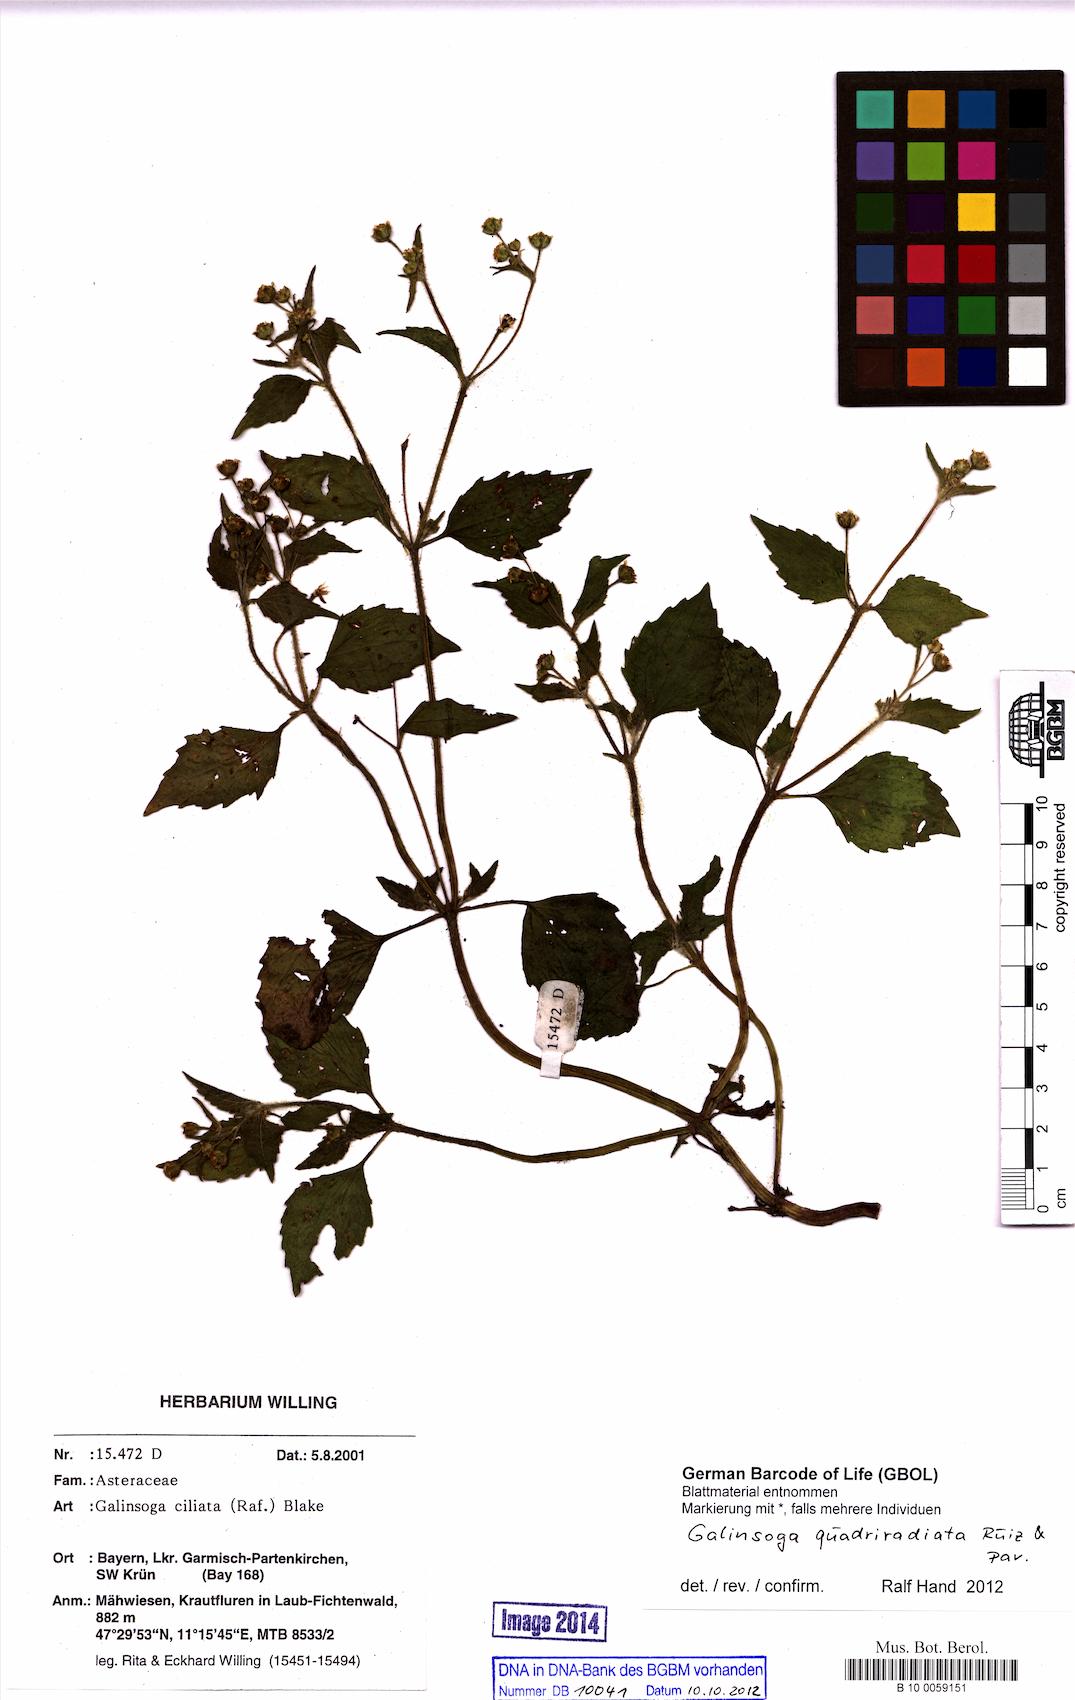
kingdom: Plantae
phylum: Tracheophyta
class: Magnoliopsida
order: Asterales
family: Asteraceae
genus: Galinsoga
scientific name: Galinsoga quadriradiata
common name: Shaggy soldier
